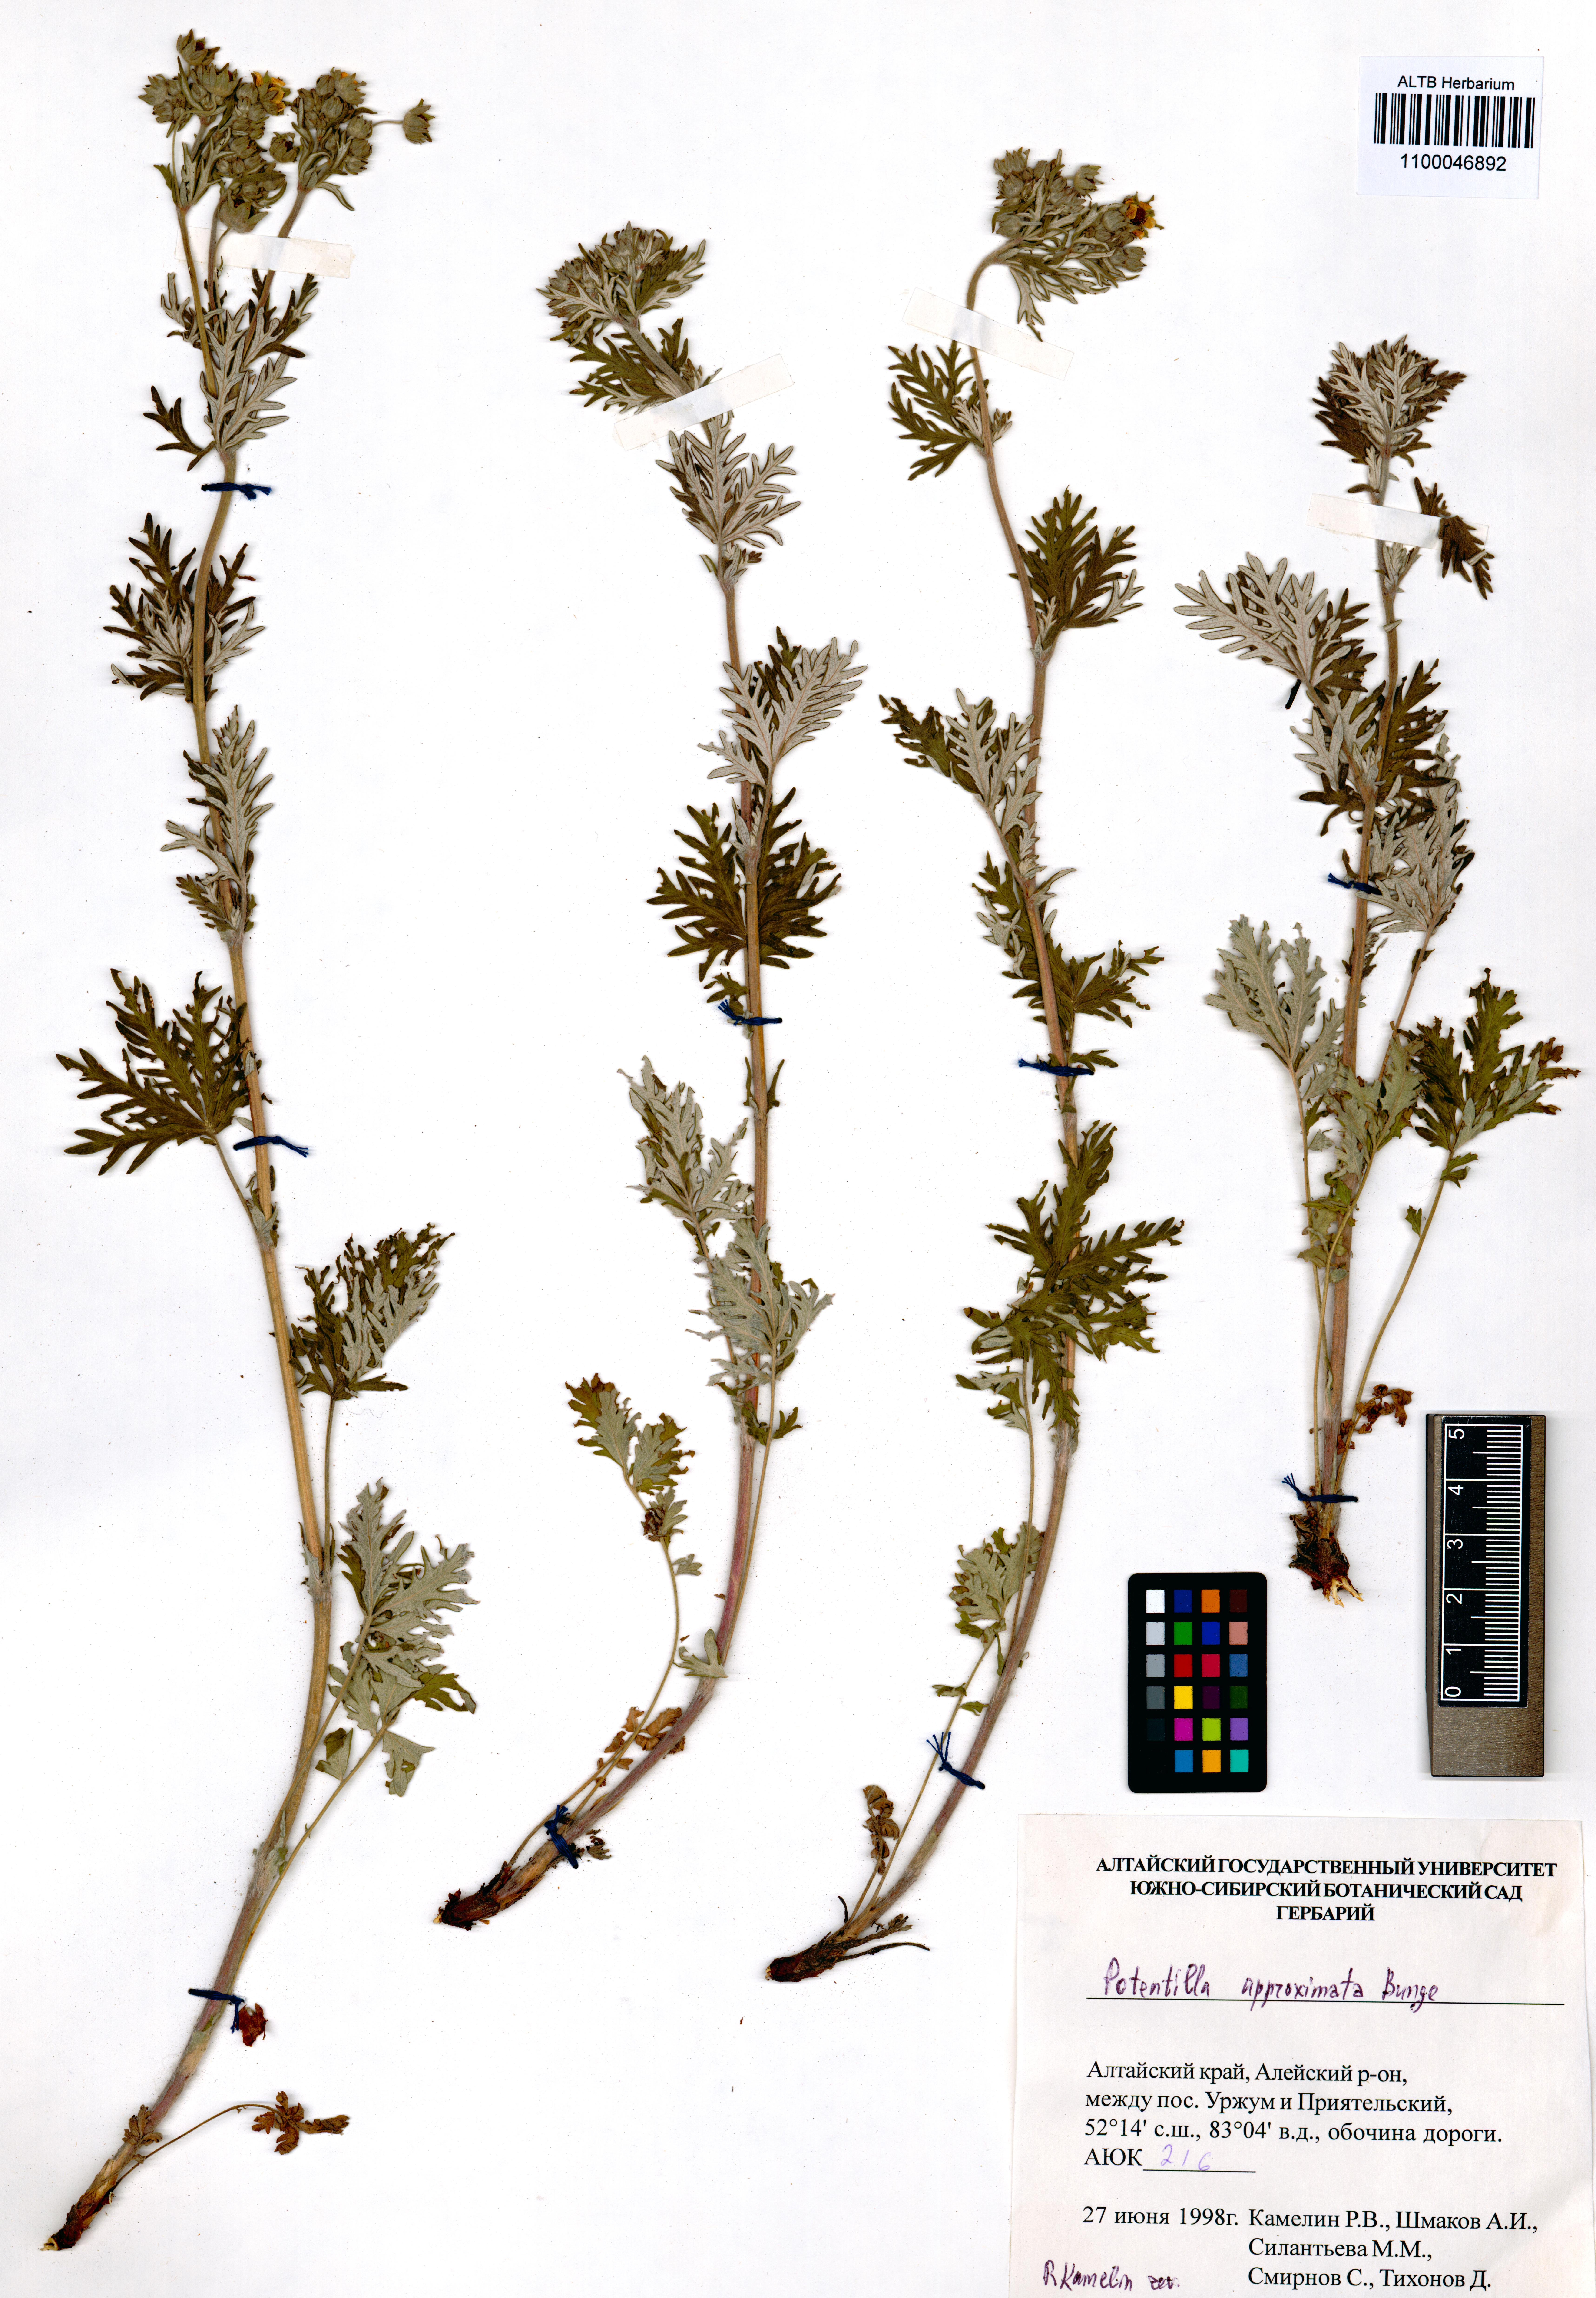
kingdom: Plantae
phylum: Tracheophyta
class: Magnoliopsida
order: Rosales
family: Rosaceae
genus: Potentilla
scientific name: Potentilla conferta
